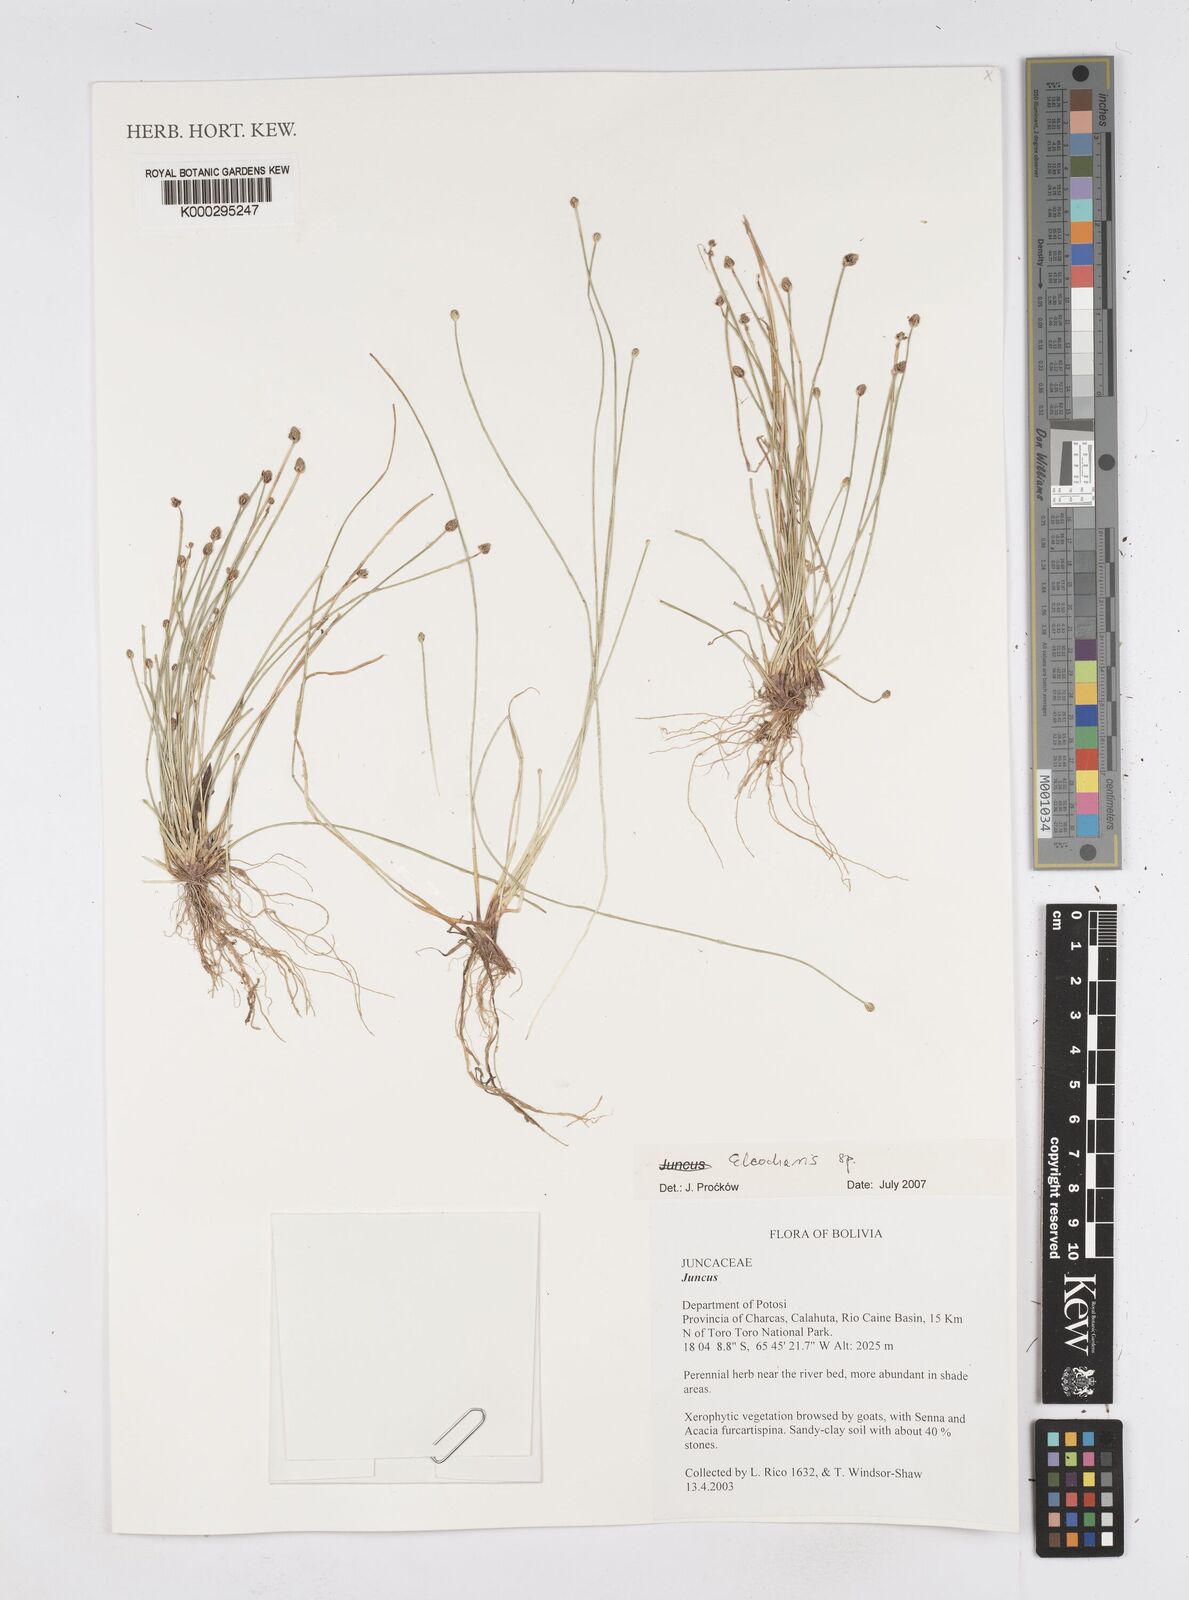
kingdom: Plantae
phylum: Tracheophyta
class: Liliopsida
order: Poales
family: Cyperaceae
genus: Eleocharis
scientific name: Eleocharis
